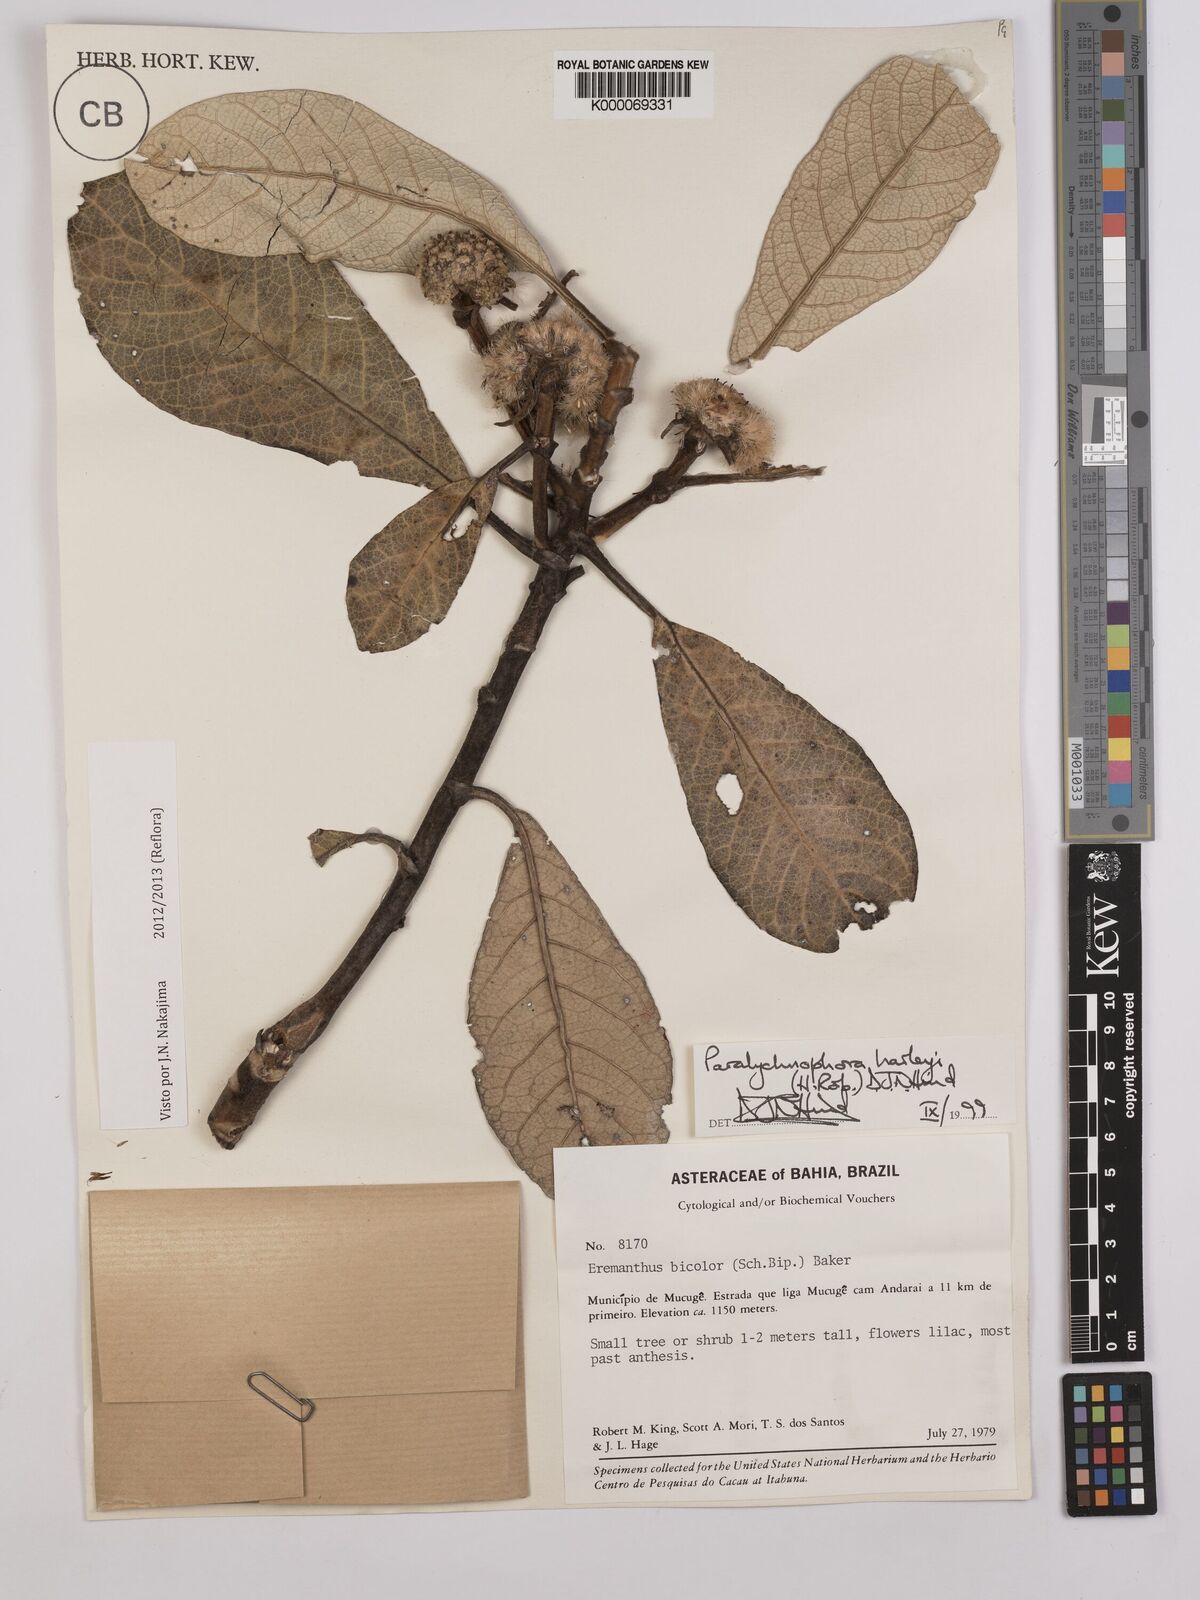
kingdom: Plantae
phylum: Tracheophyta
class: Magnoliopsida
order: Asterales
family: Asteraceae
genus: Paralychnophora
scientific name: Paralychnophora harleyi
